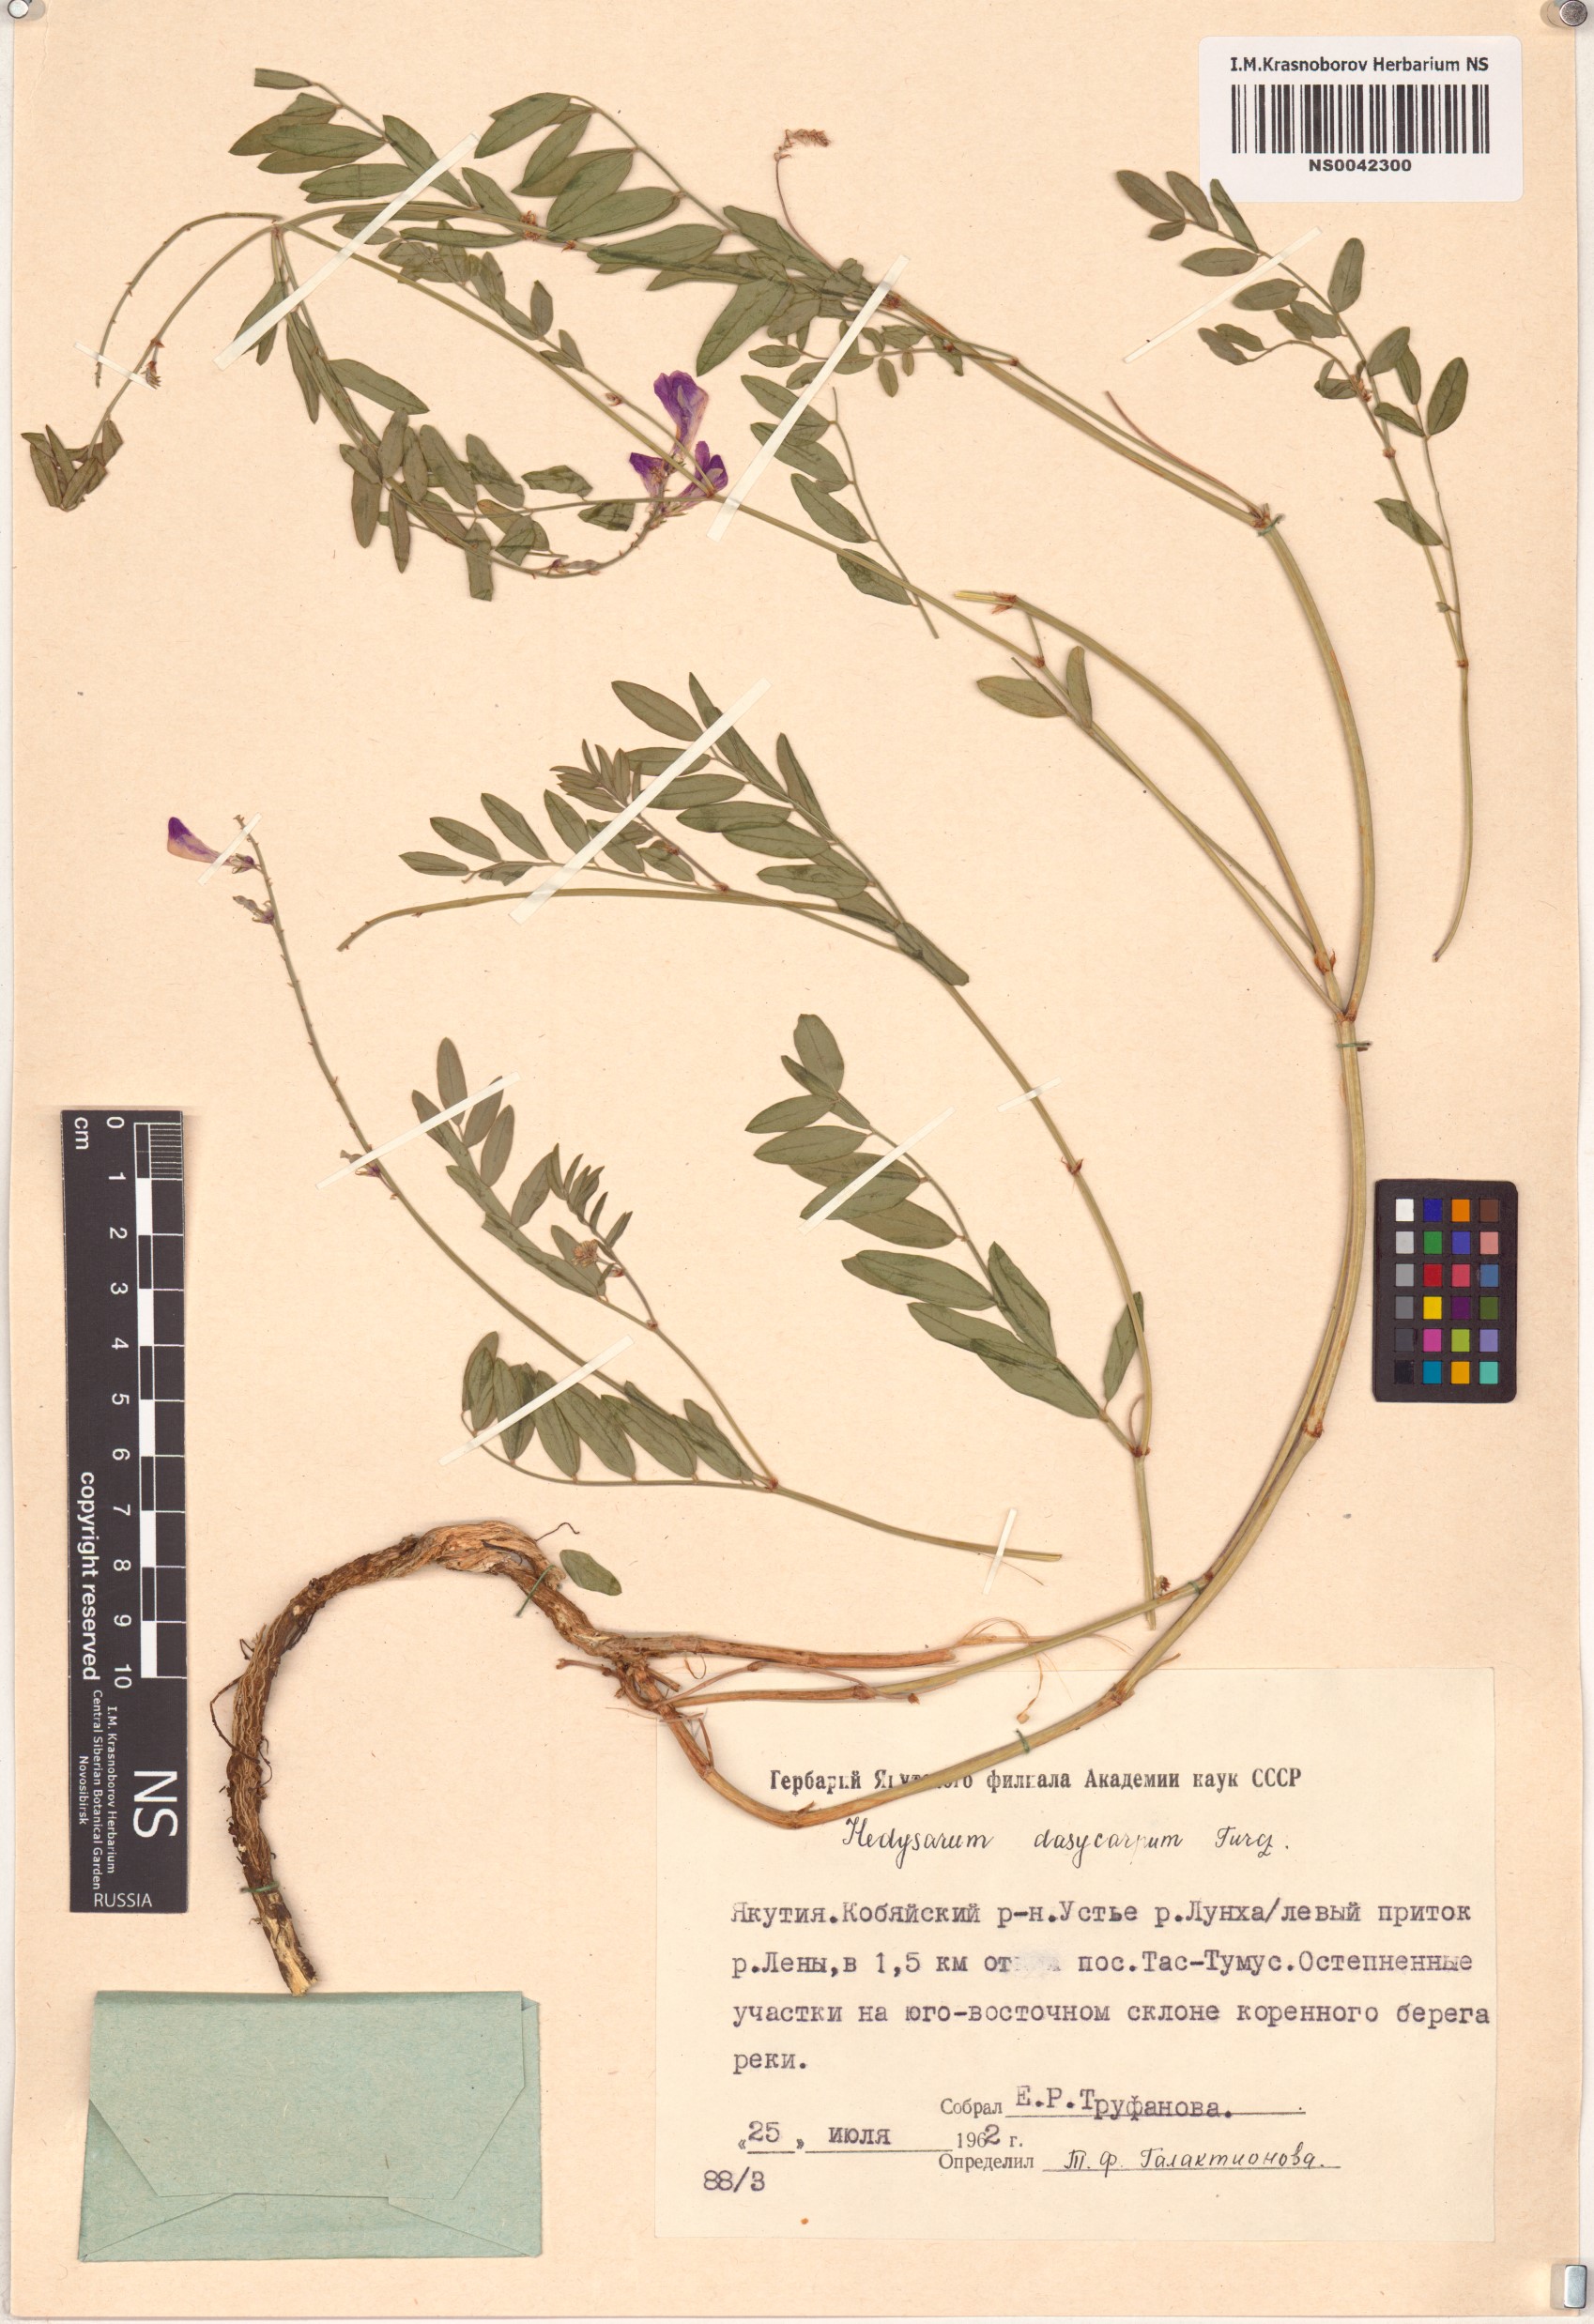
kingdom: Plantae
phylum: Tracheophyta
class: Magnoliopsida
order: Fabales
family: Fabaceae
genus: Hedysarum
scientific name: Hedysarum dasycarpum
